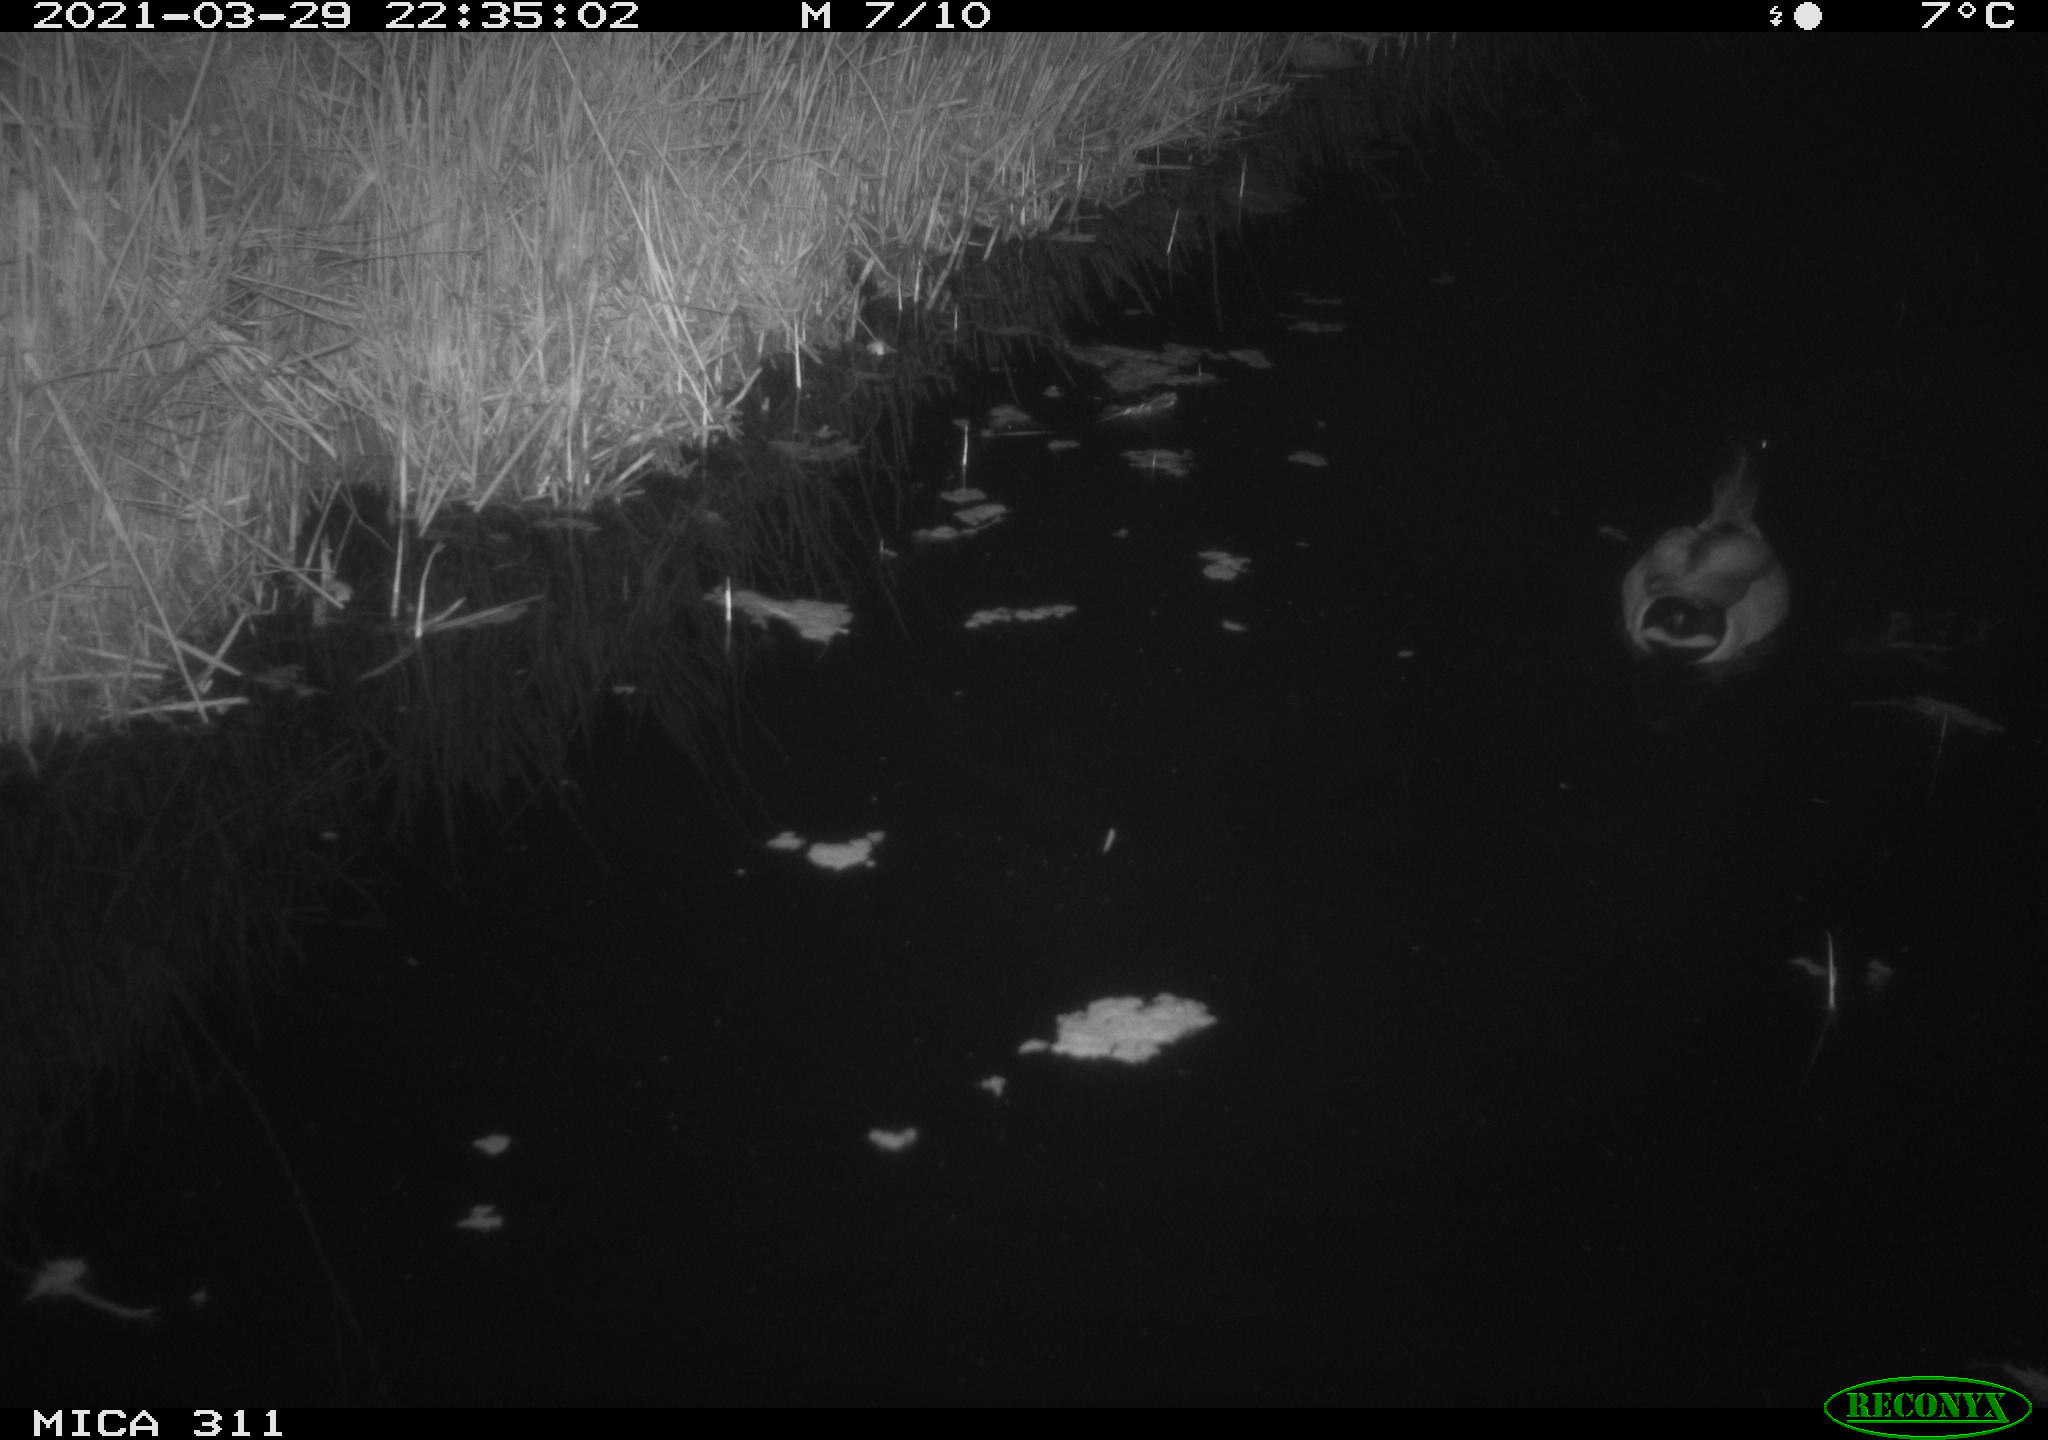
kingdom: Animalia
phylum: Chordata
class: Aves
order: Anseriformes
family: Anatidae
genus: Anas
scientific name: Anas
